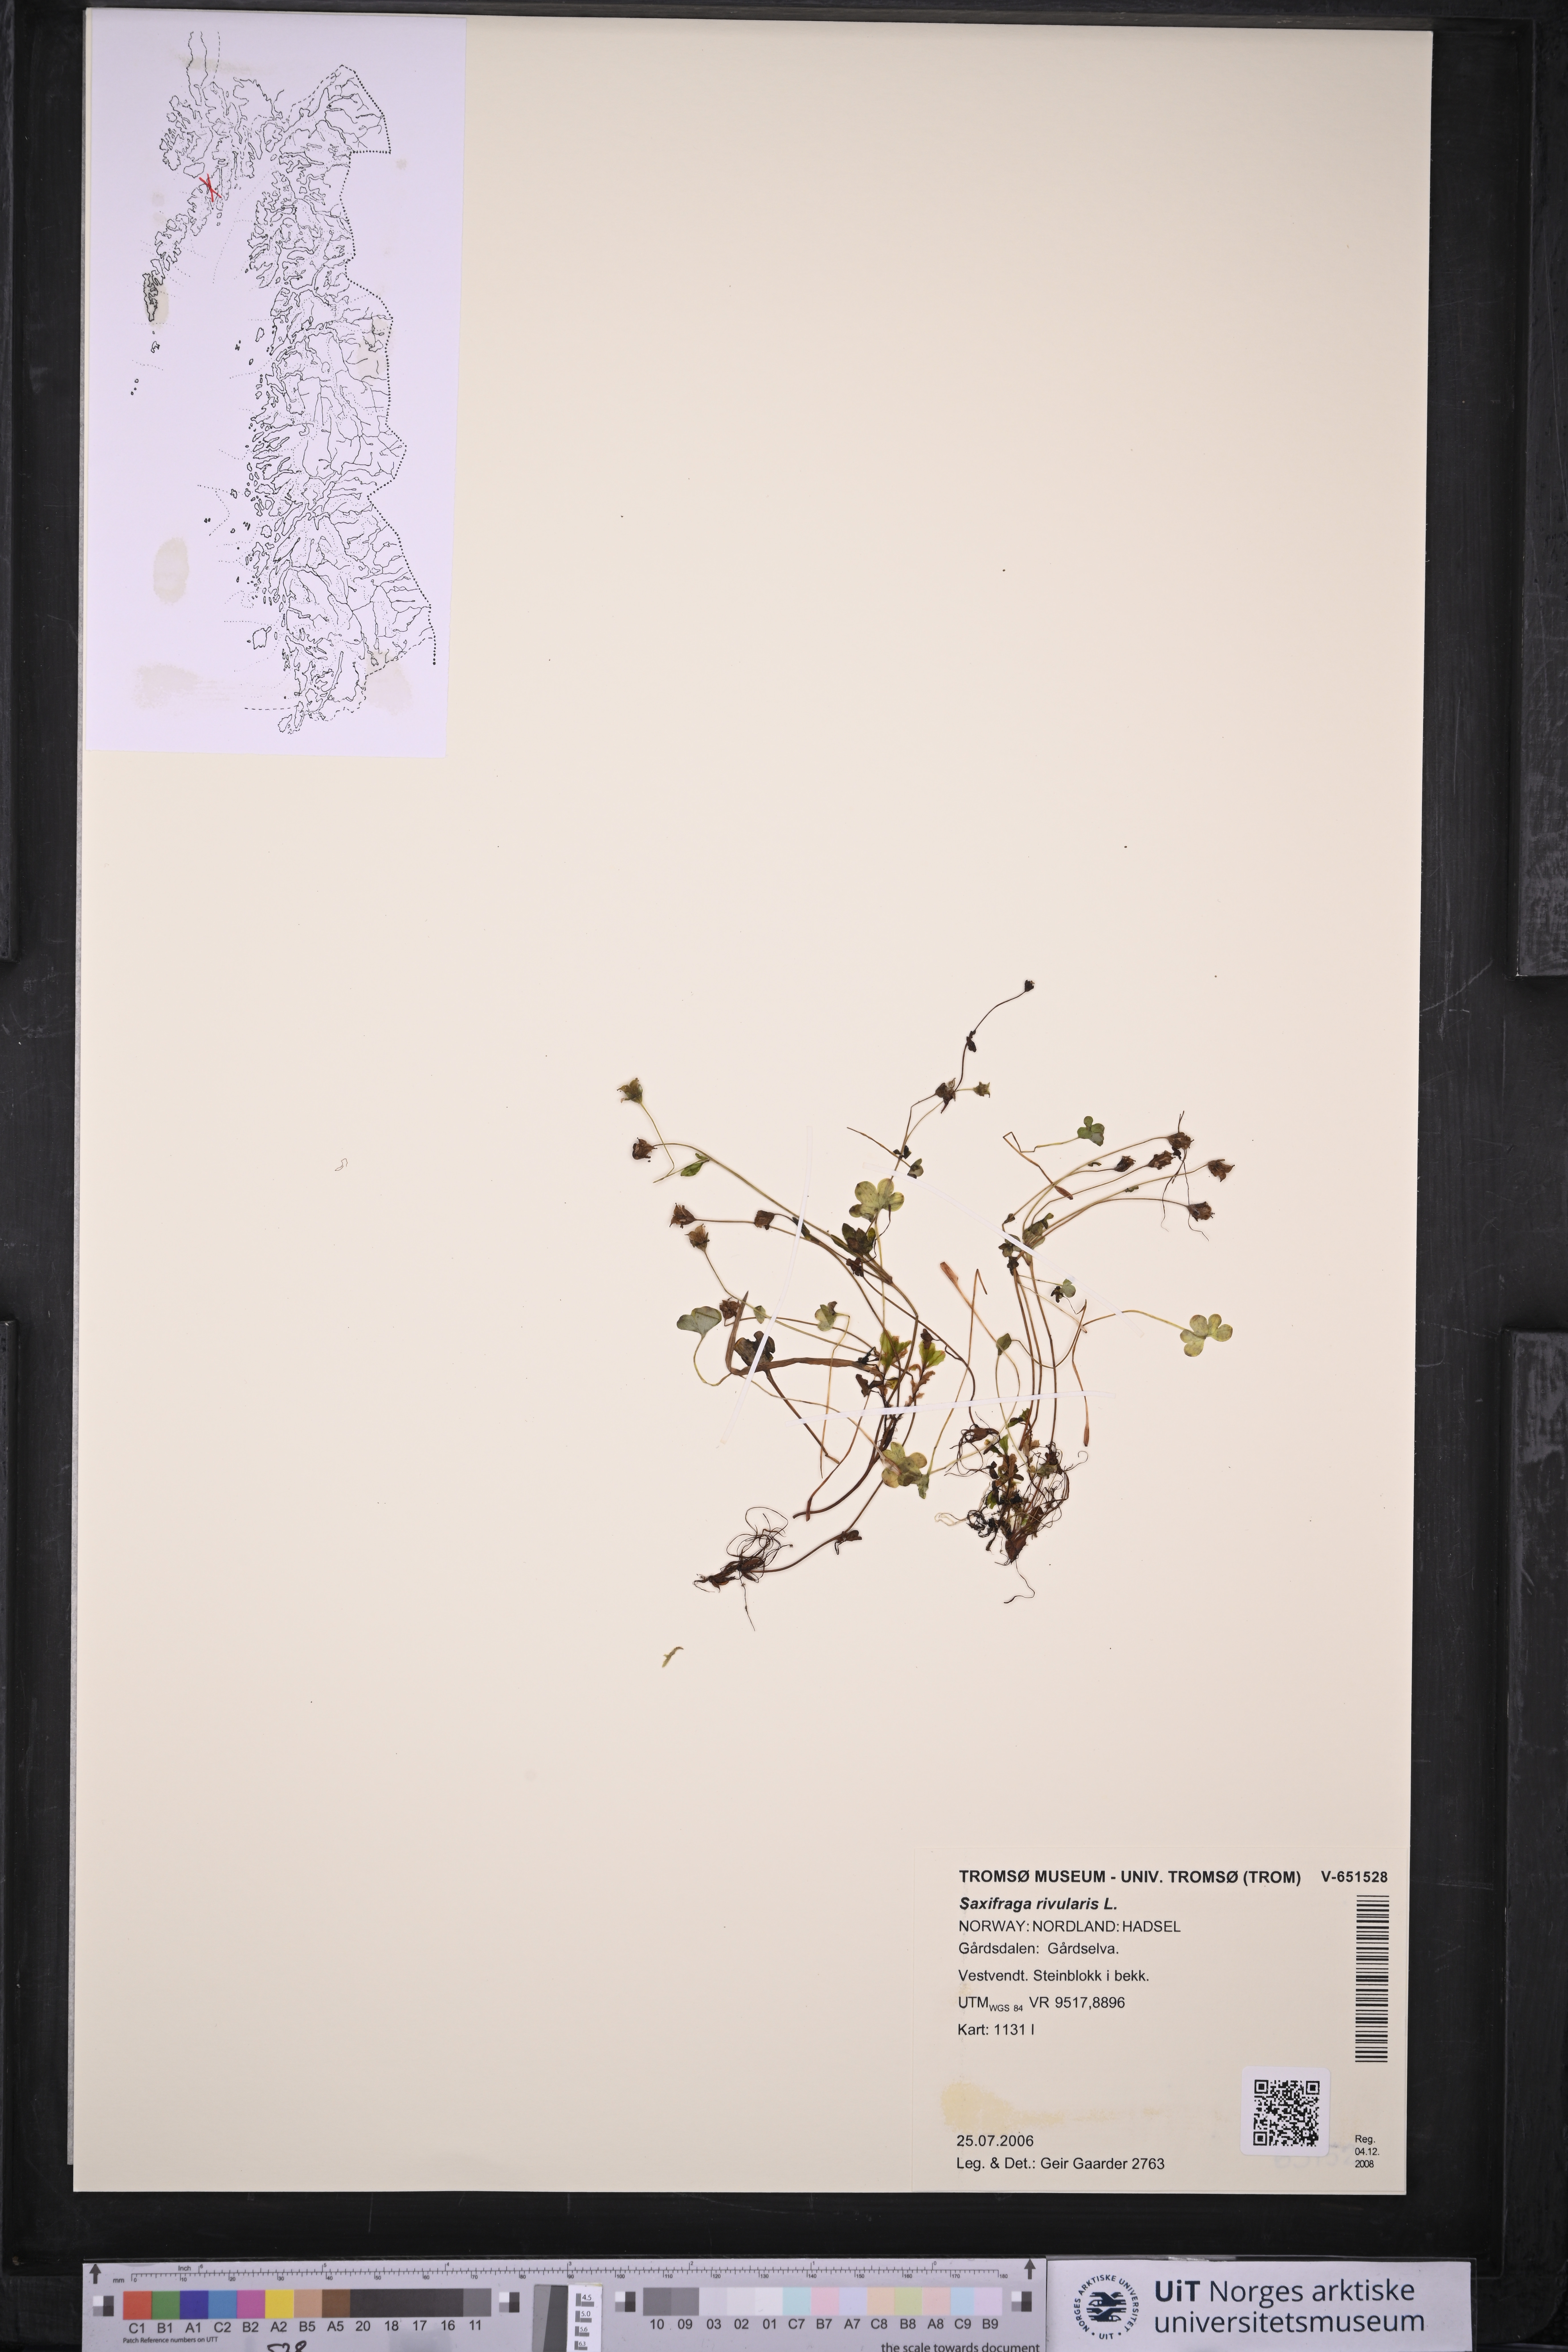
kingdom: Plantae
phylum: Tracheophyta
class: Magnoliopsida
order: Saxifragales
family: Saxifragaceae
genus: Saxifraga
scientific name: Saxifraga rivularis
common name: Highland saxifrage
